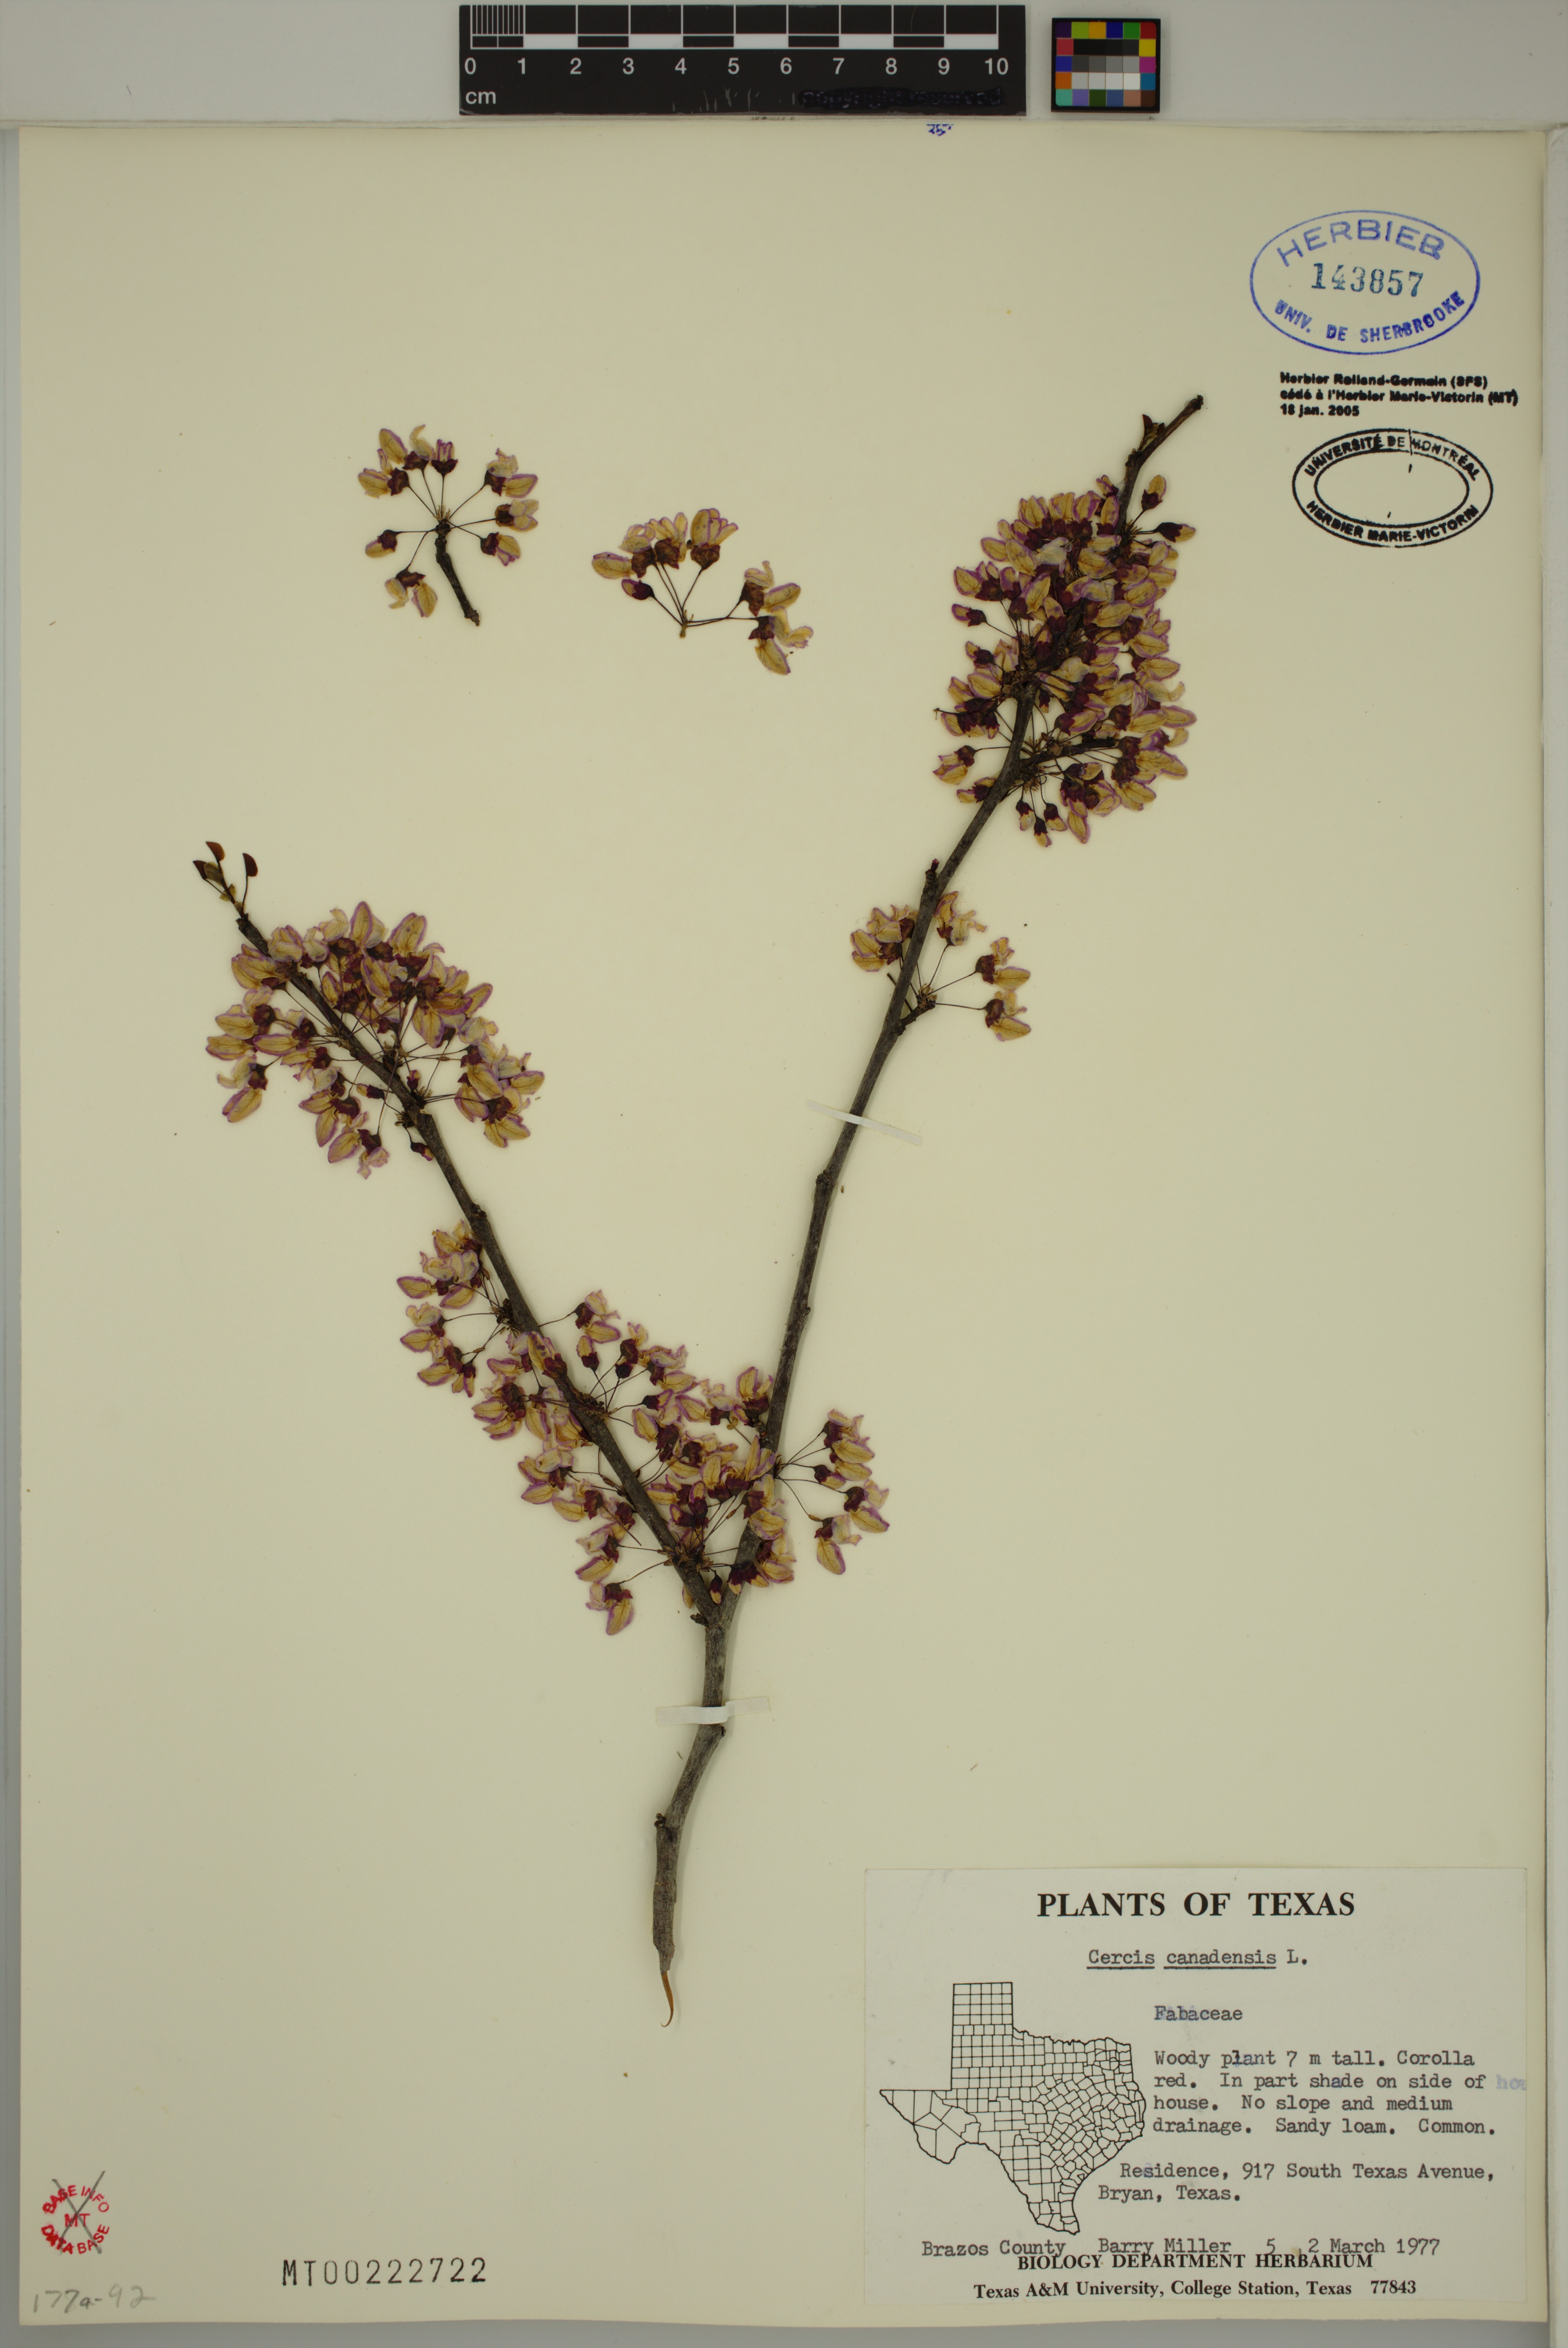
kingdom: Plantae
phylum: Tracheophyta
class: Magnoliopsida
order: Fabales
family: Fabaceae
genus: Cercis
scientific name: Cercis canadensis
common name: Eastern redbud
